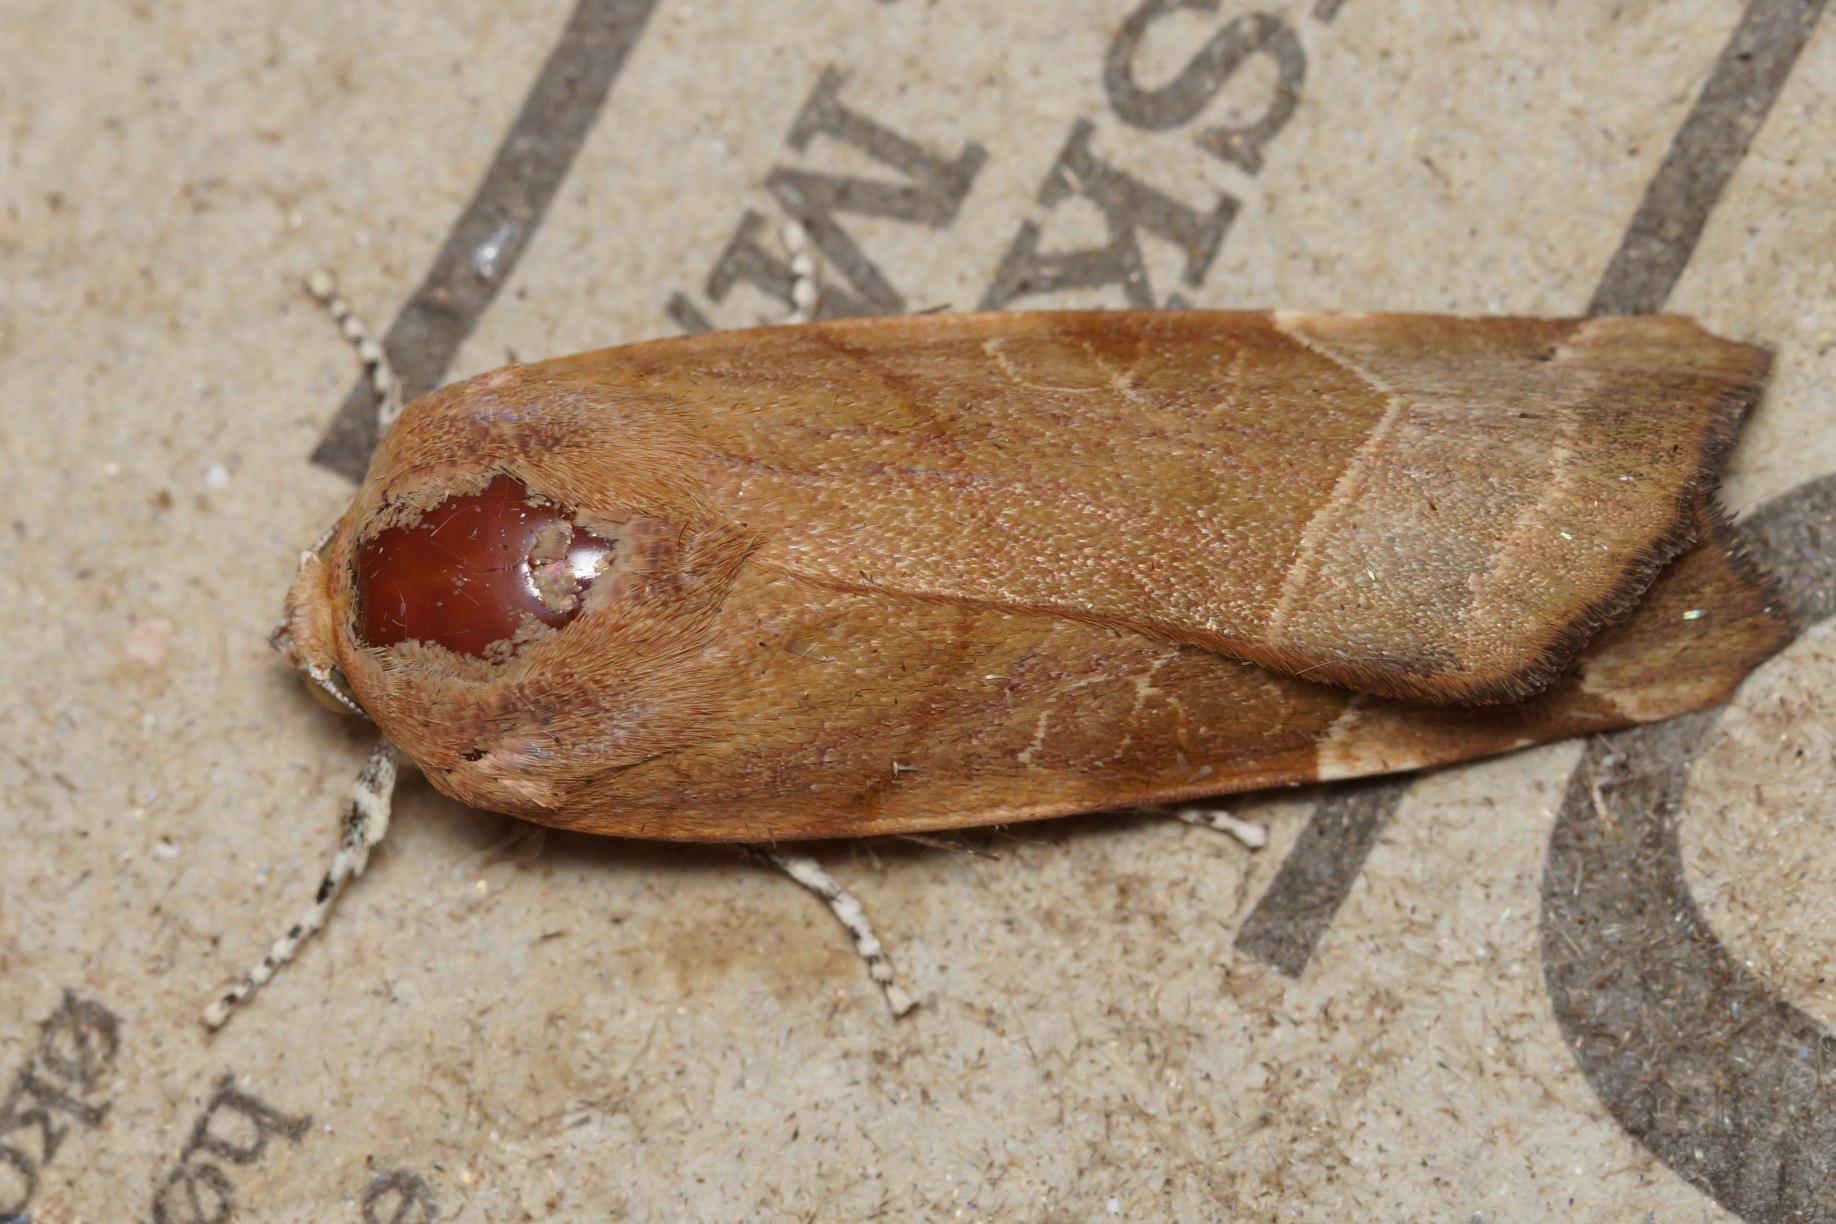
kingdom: Animalia
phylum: Arthropoda
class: Insecta
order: Lepidoptera
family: Noctuidae
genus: Noctua
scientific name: Noctua fimbriata
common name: Gul båndugle
